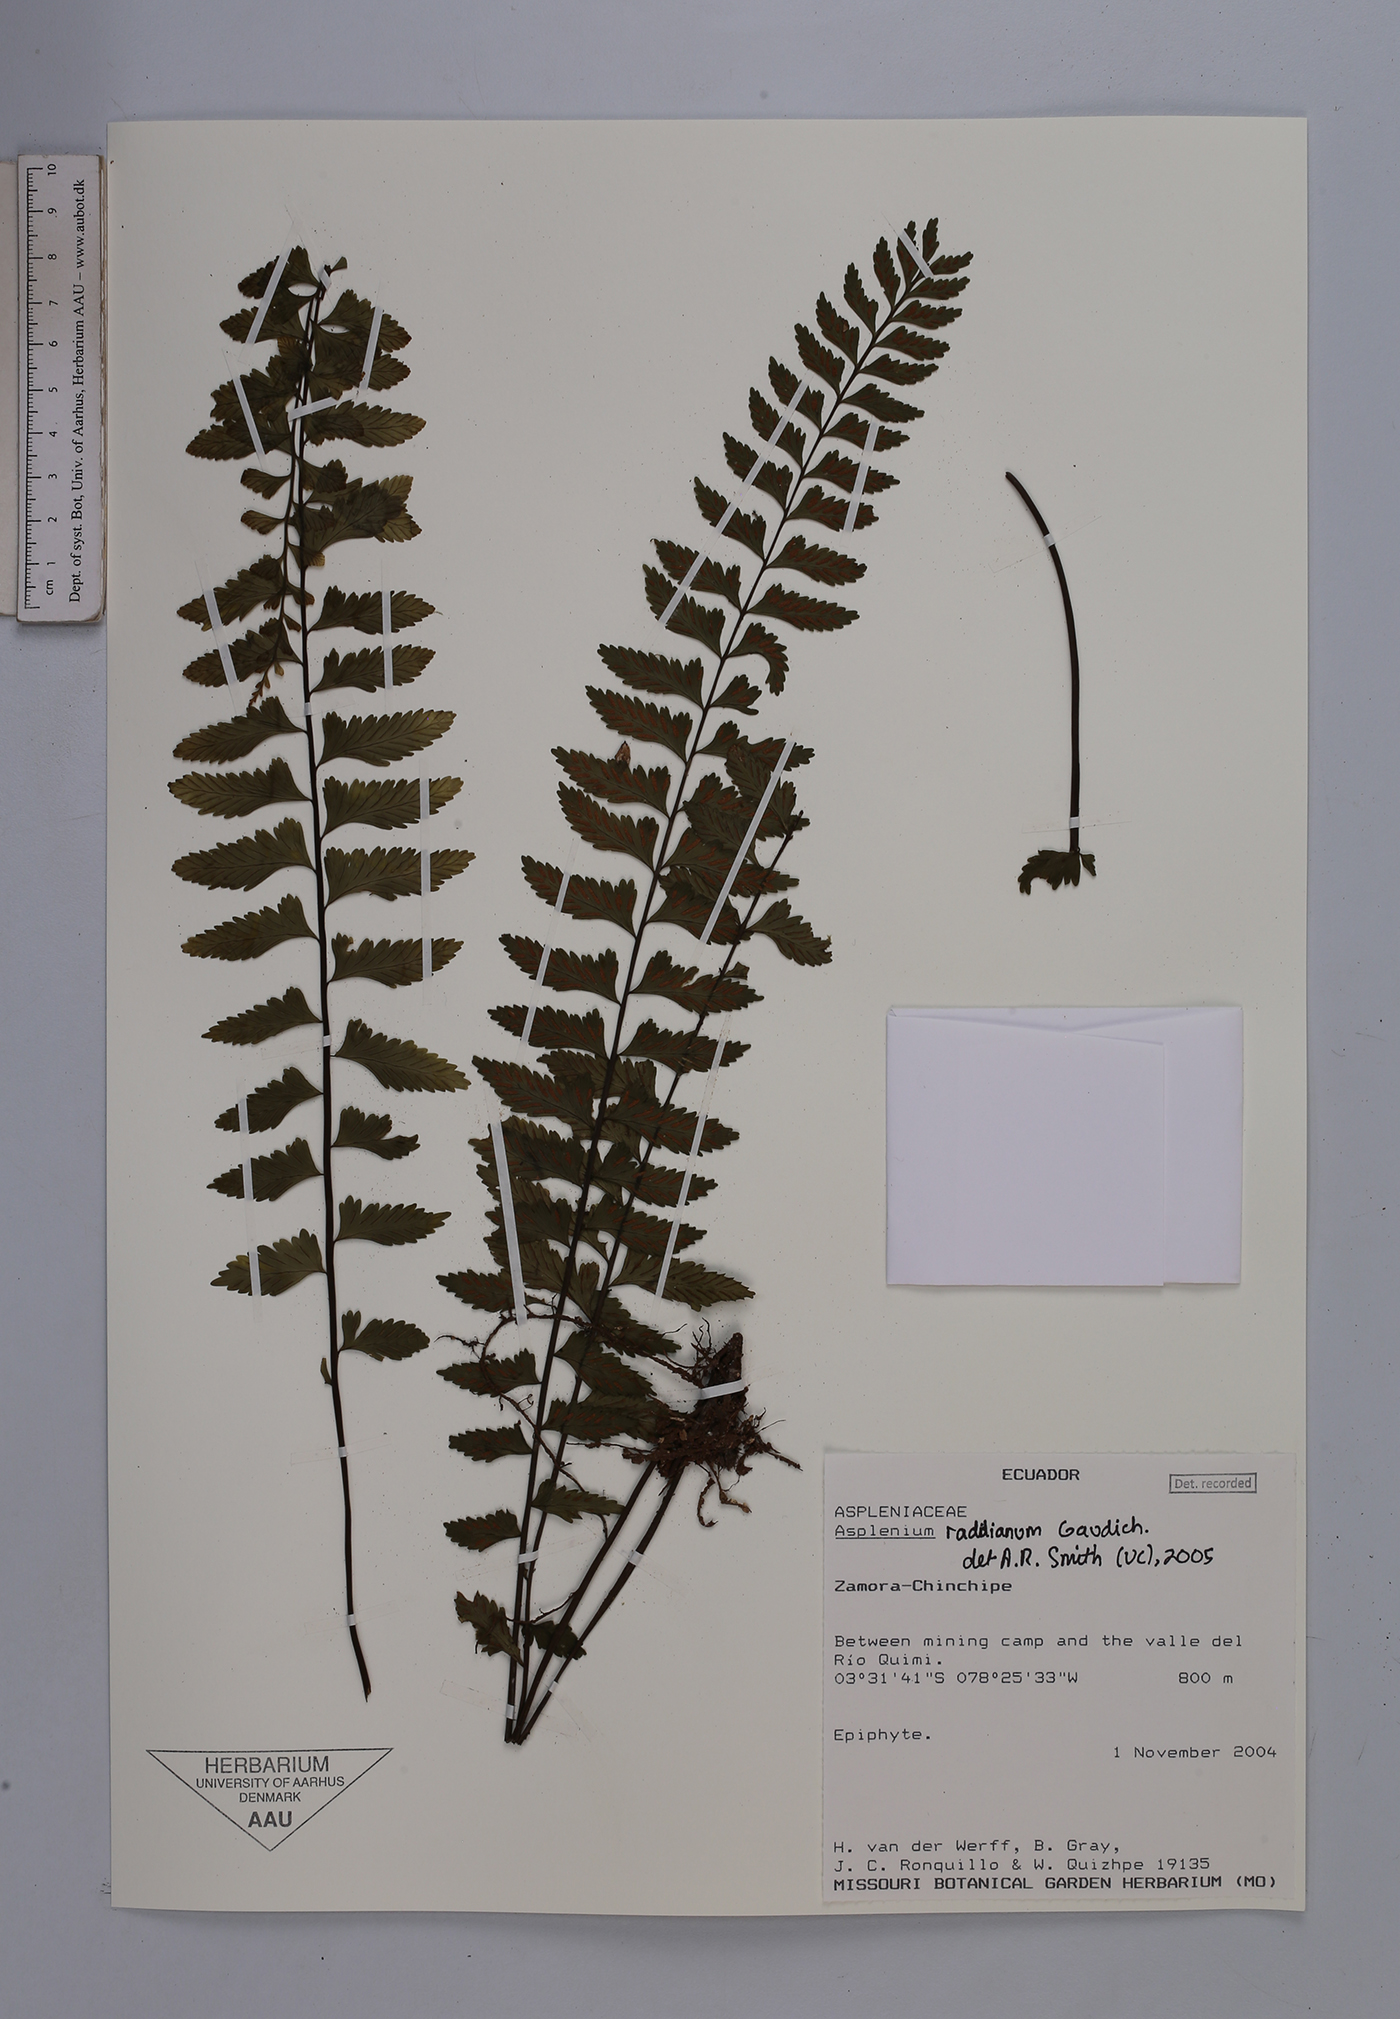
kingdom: Plantae
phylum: Tracheophyta
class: Polypodiopsida
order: Polypodiales
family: Aspleniaceae
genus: Asplenium
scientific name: Asplenium raddianum
